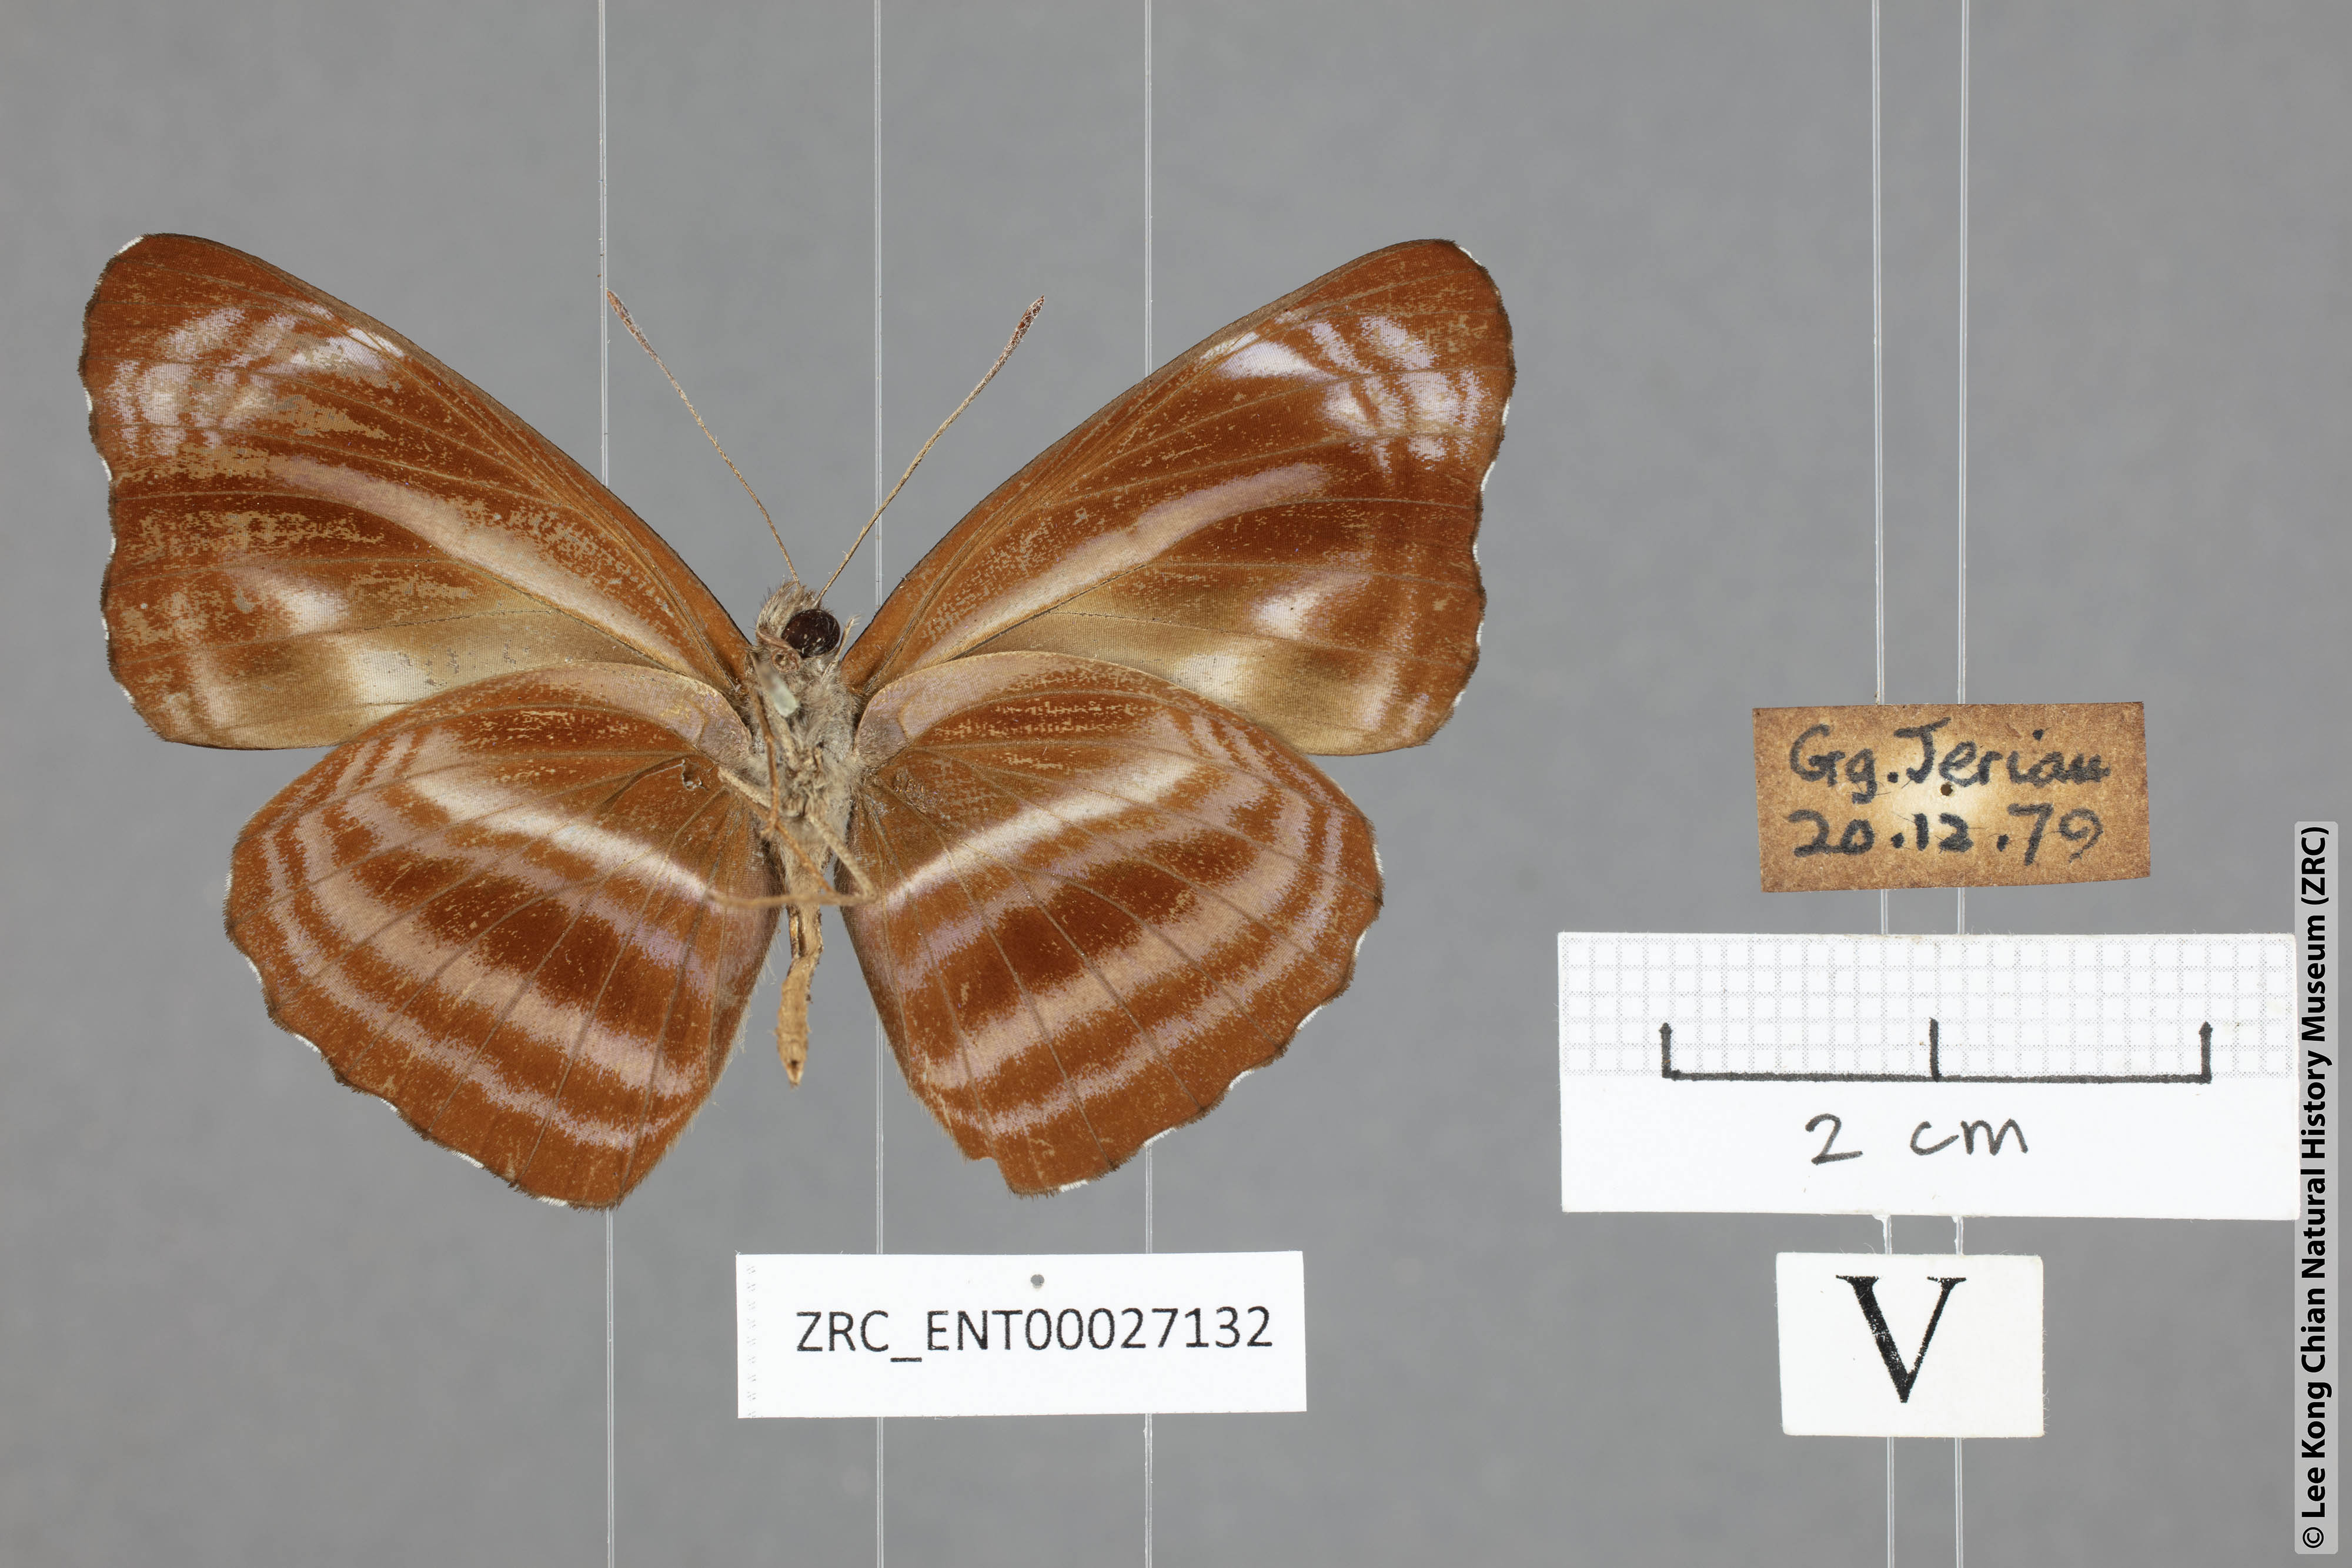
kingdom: Animalia
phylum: Arthropoda
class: Insecta
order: Lepidoptera
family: Nymphalidae
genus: Neptis
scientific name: Neptis anjana
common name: Rich sailer
